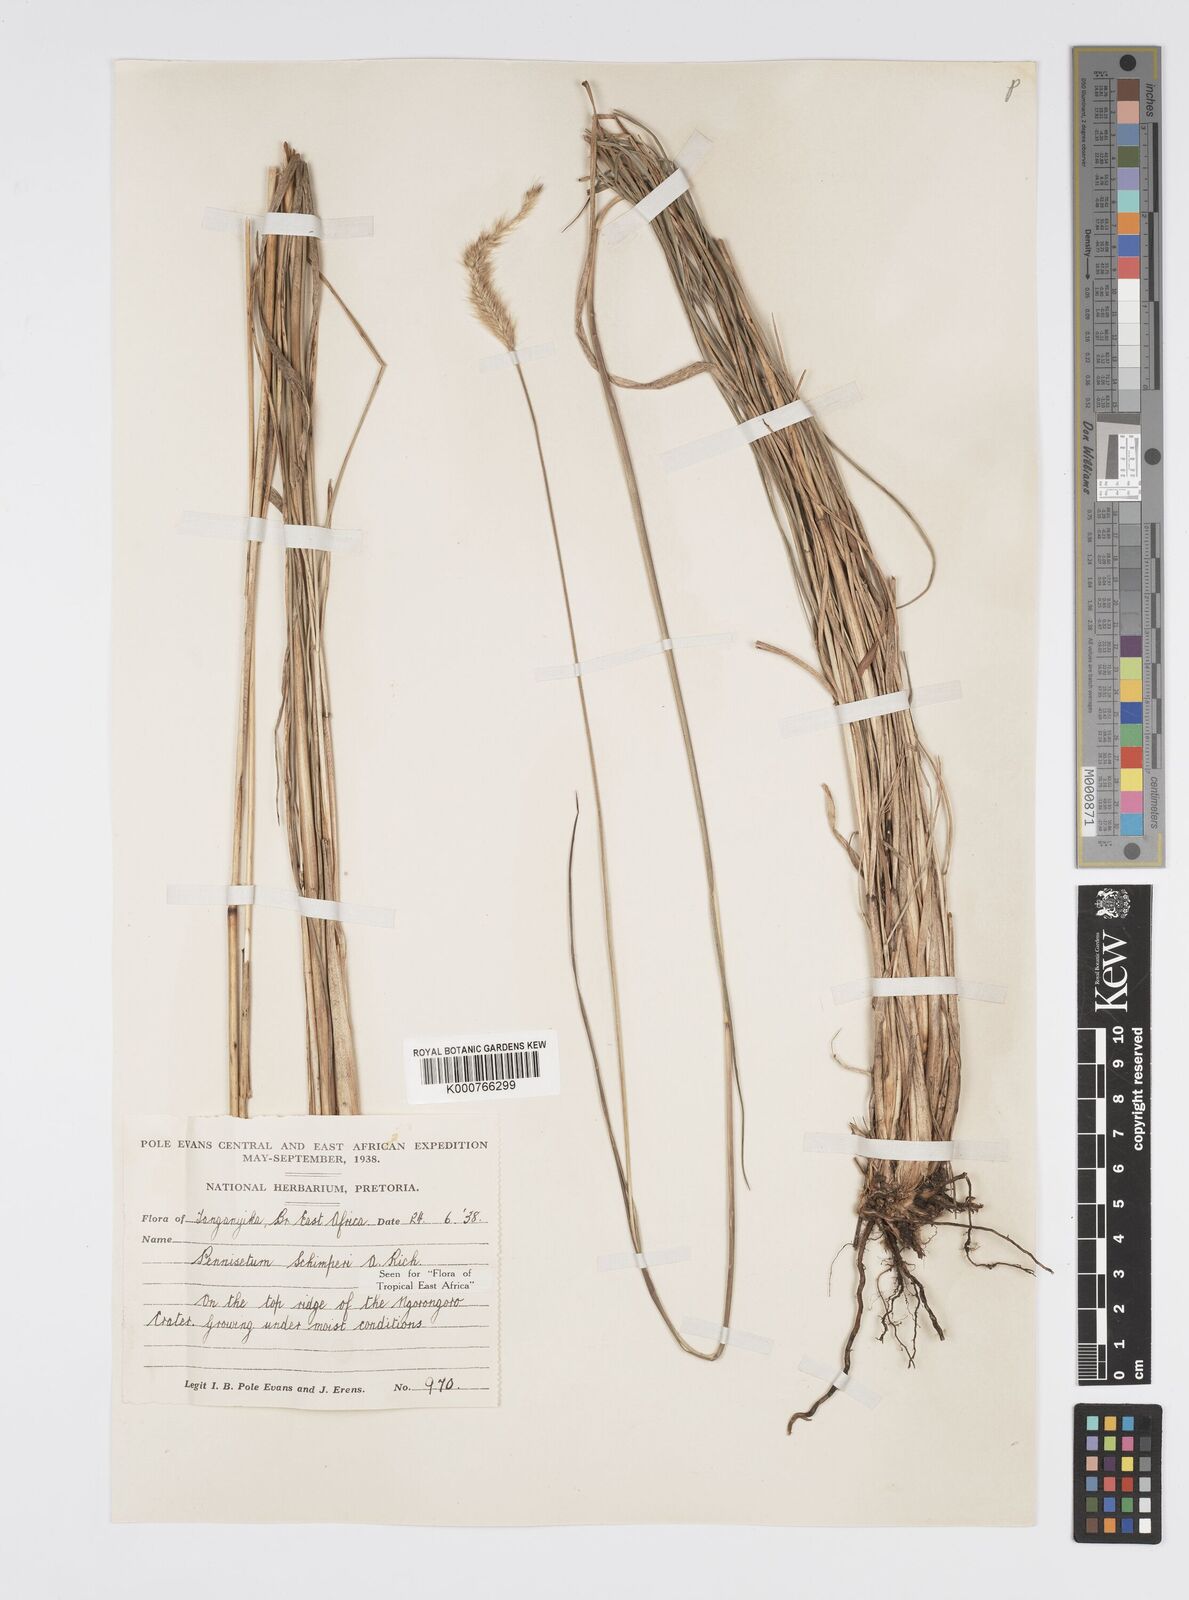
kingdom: Plantae
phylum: Tracheophyta
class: Liliopsida
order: Poales
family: Poaceae
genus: Cenchrus
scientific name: Cenchrus sphacelatus
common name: Bulgras
